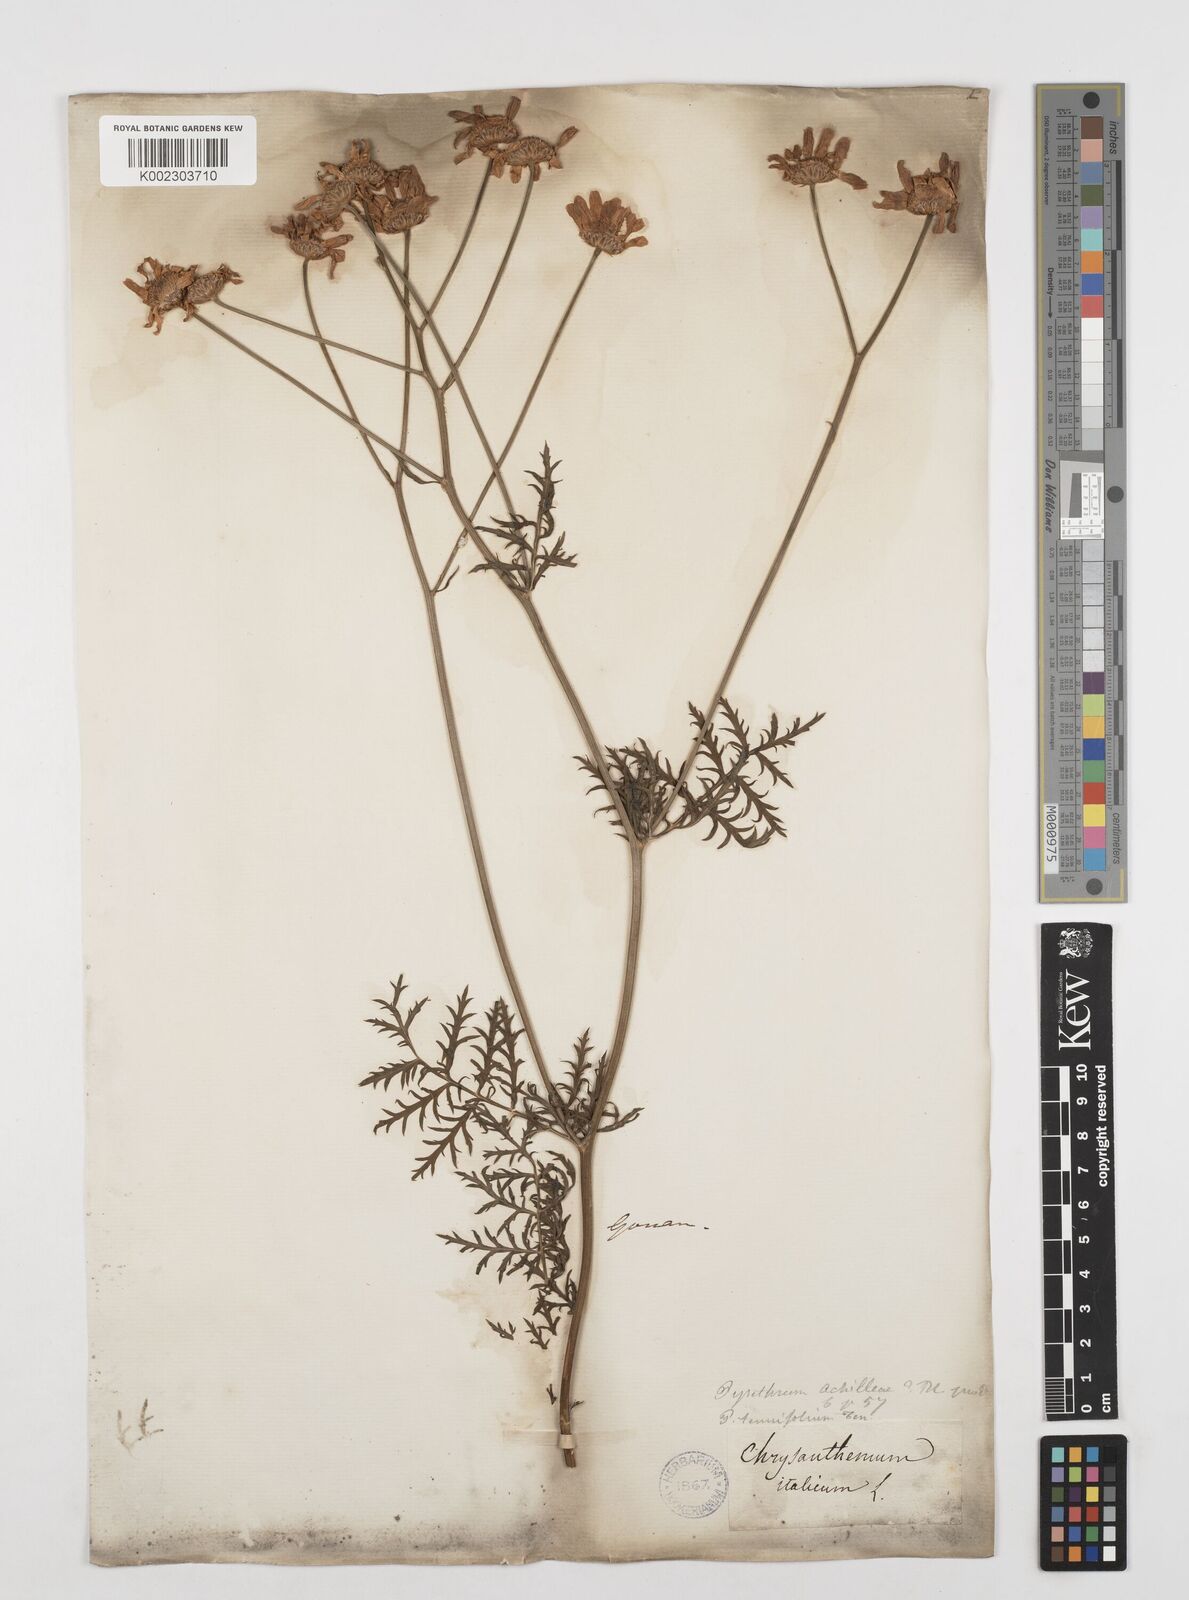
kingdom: Plantae
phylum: Tracheophyta
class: Magnoliopsida
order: Asterales
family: Asteraceae
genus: Tanacetum
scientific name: Tanacetum achilleae
